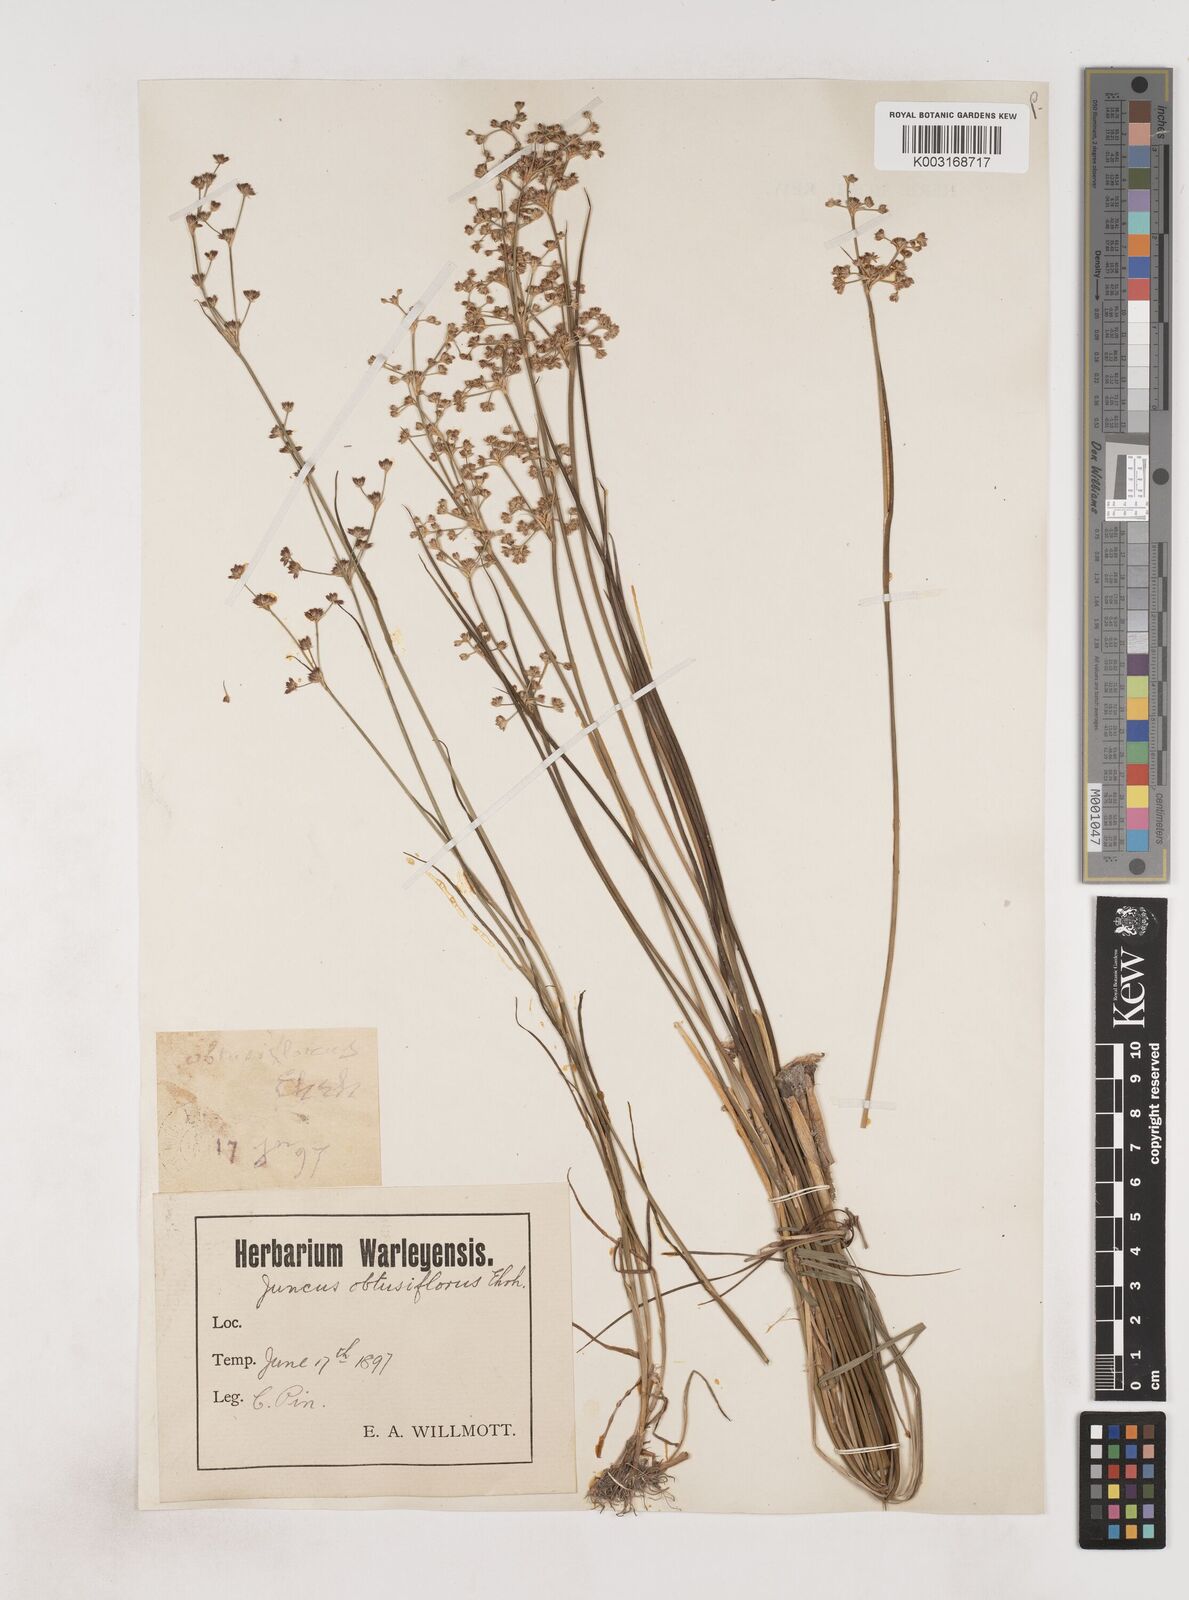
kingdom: Plantae
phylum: Tracheophyta
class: Liliopsida
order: Poales
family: Juncaceae
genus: Juncus
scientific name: Juncus subnodulosus
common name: Blunt-flowered rush
